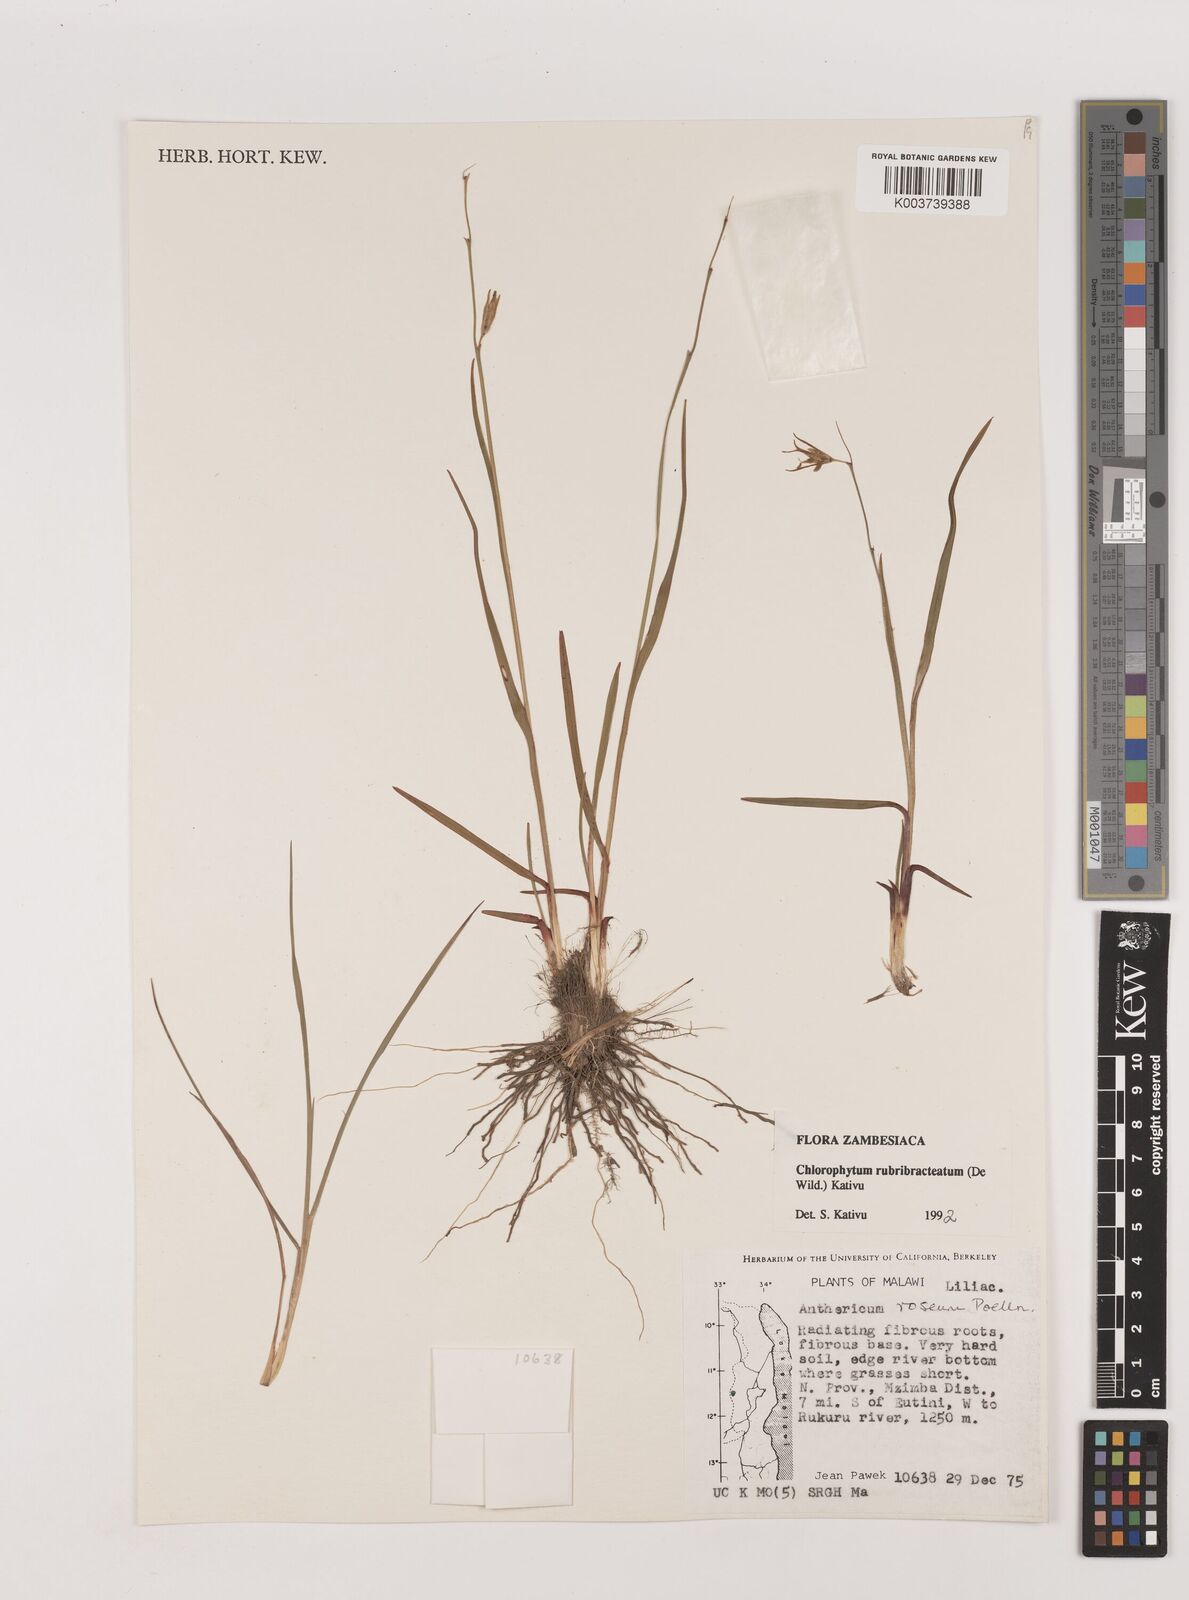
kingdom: Plantae
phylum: Tracheophyta
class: Liliopsida
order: Asparagales
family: Asparagaceae
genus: Chlorophytum
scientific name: Chlorophytum rubribracteatum
